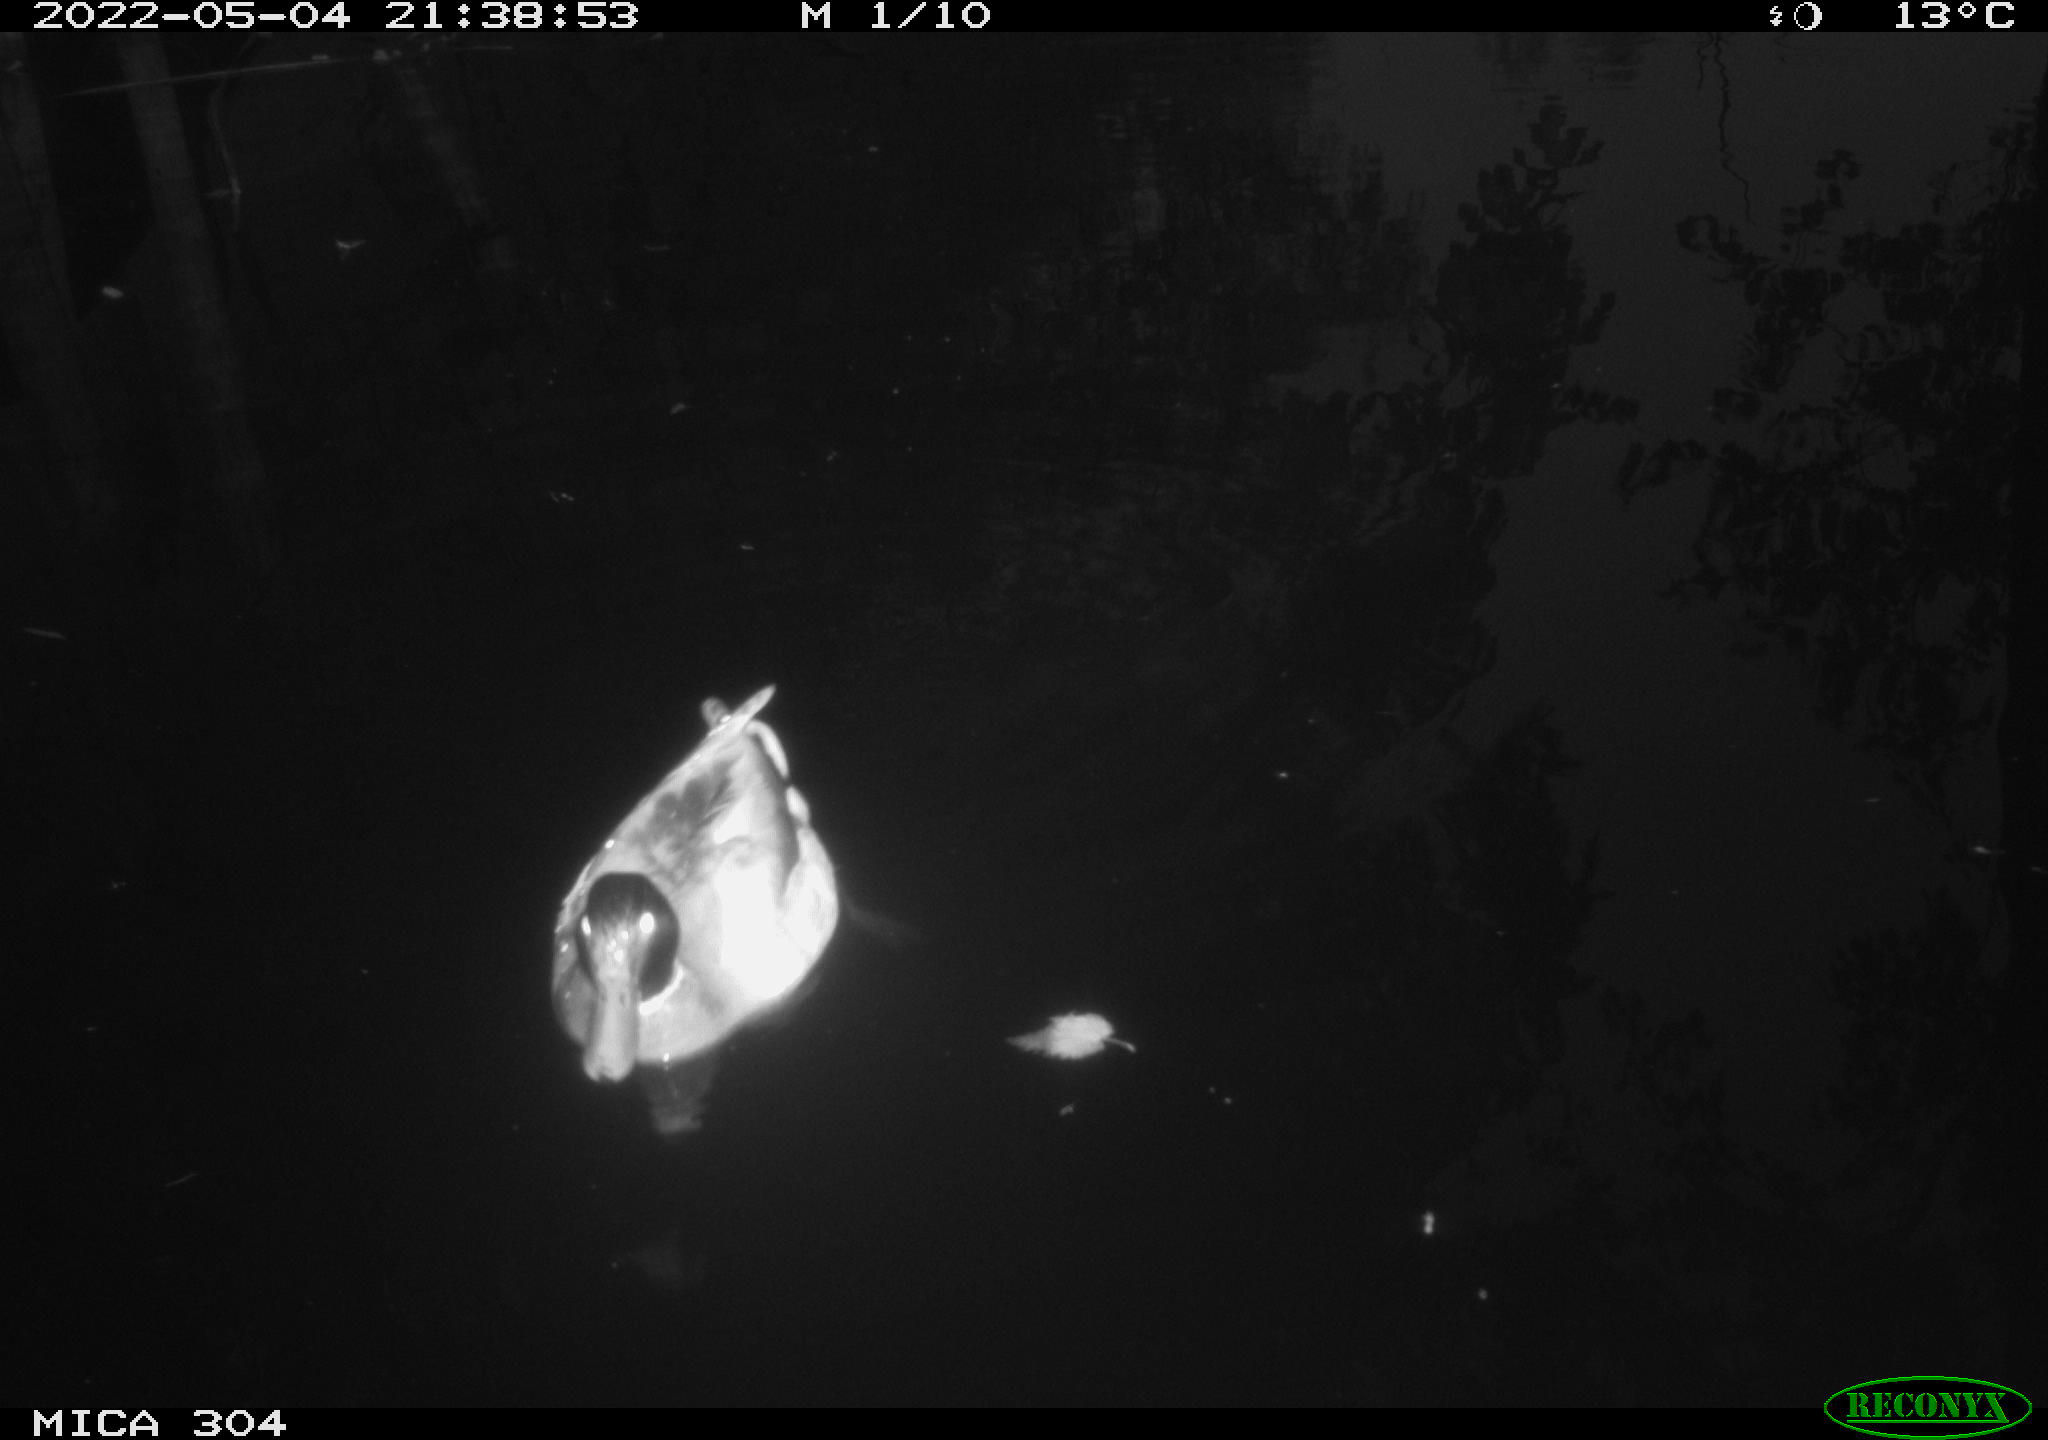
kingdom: Animalia
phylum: Chordata
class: Aves
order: Anseriformes
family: Anatidae
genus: Anas
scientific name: Anas platyrhynchos
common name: Mallard
